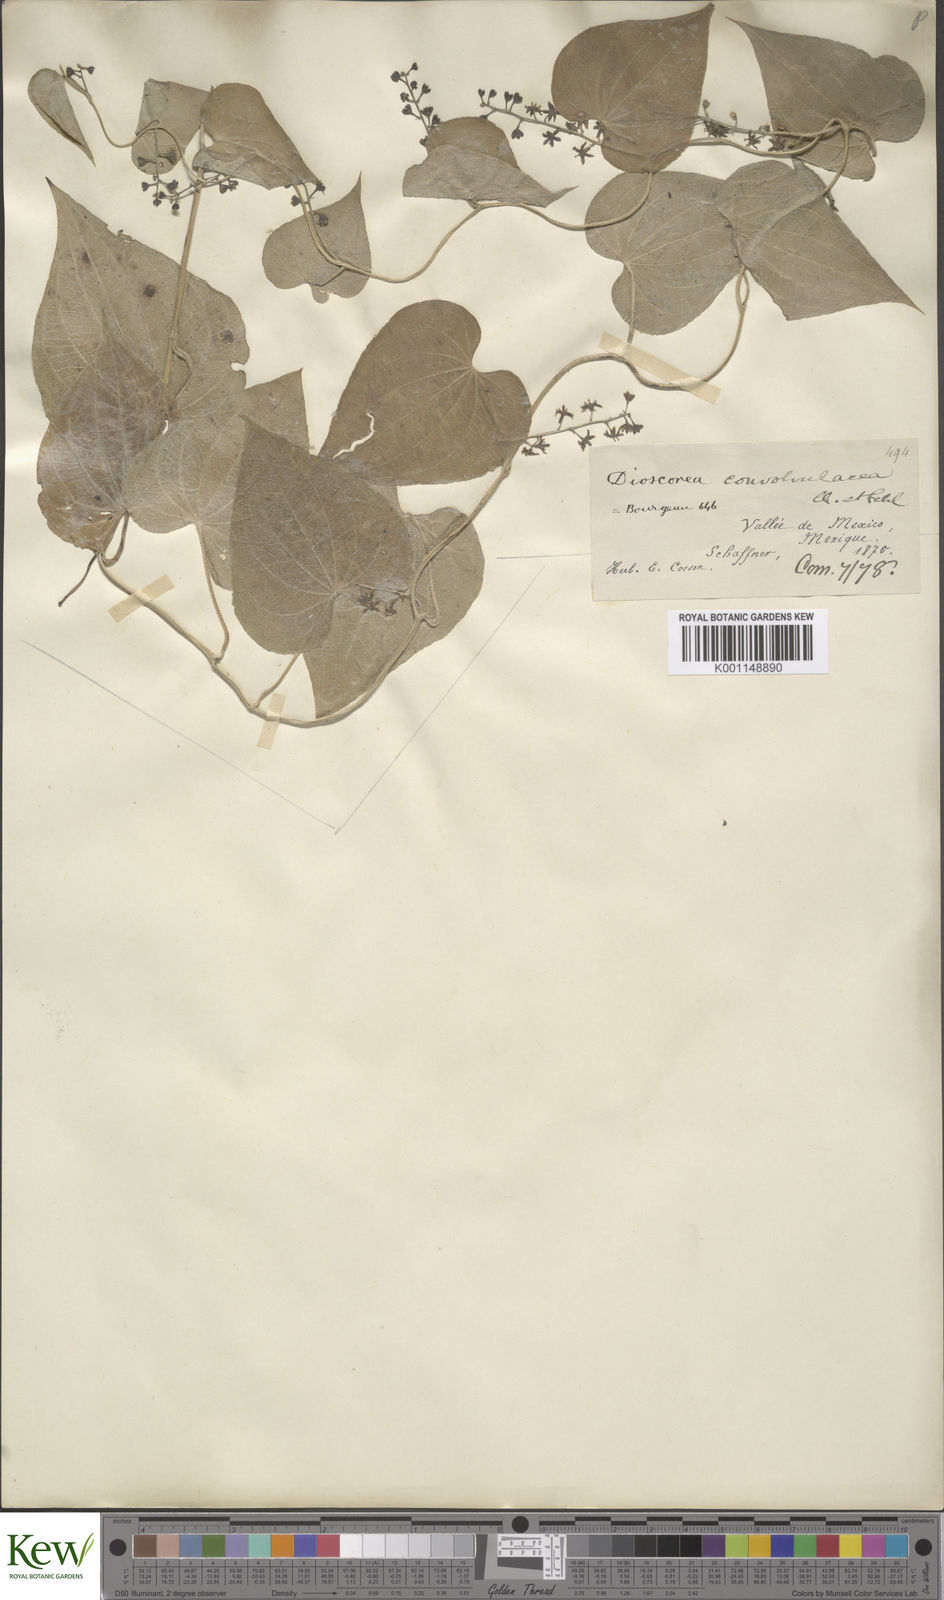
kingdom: Plantae
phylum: Tracheophyta
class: Liliopsida
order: Dioscoreales
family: Dioscoreaceae
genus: Dioscorea
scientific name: Dioscorea galeottiana
